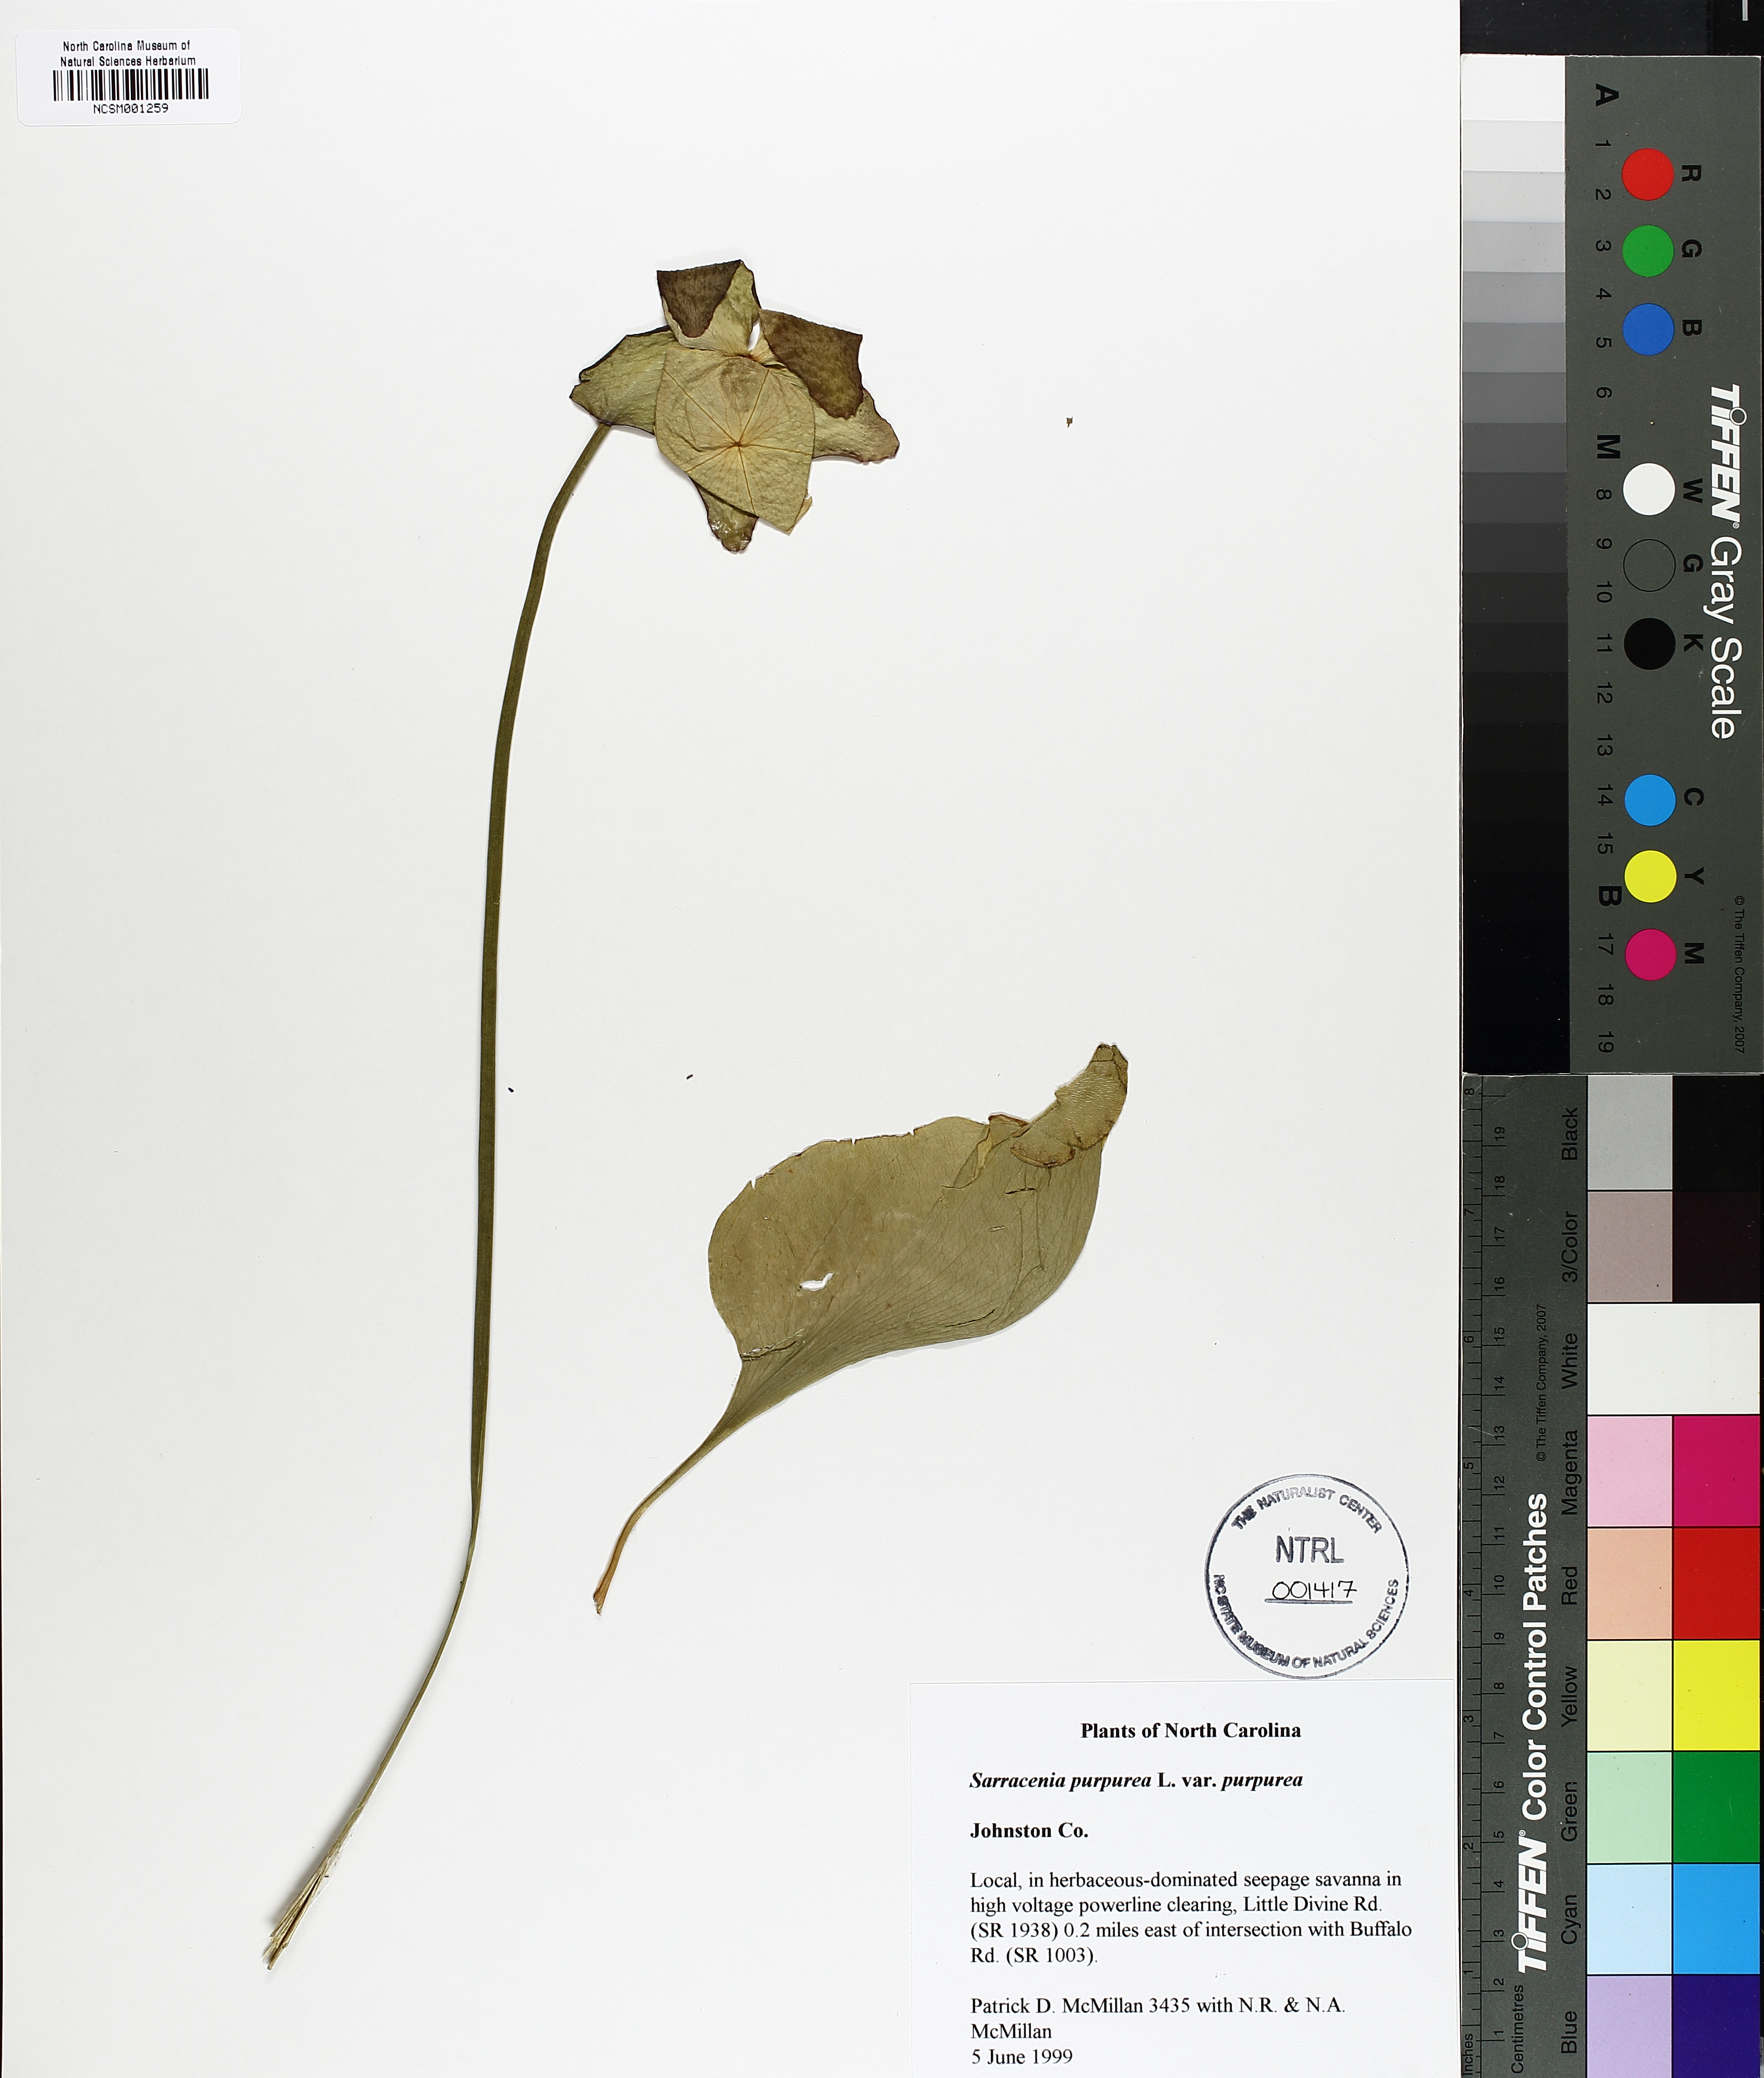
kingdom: Plantae
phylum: Tracheophyta
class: Magnoliopsida
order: Ericales
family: Sarraceniaceae
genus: Sarracenia
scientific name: Sarracenia purpurea
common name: Pitcherplant
